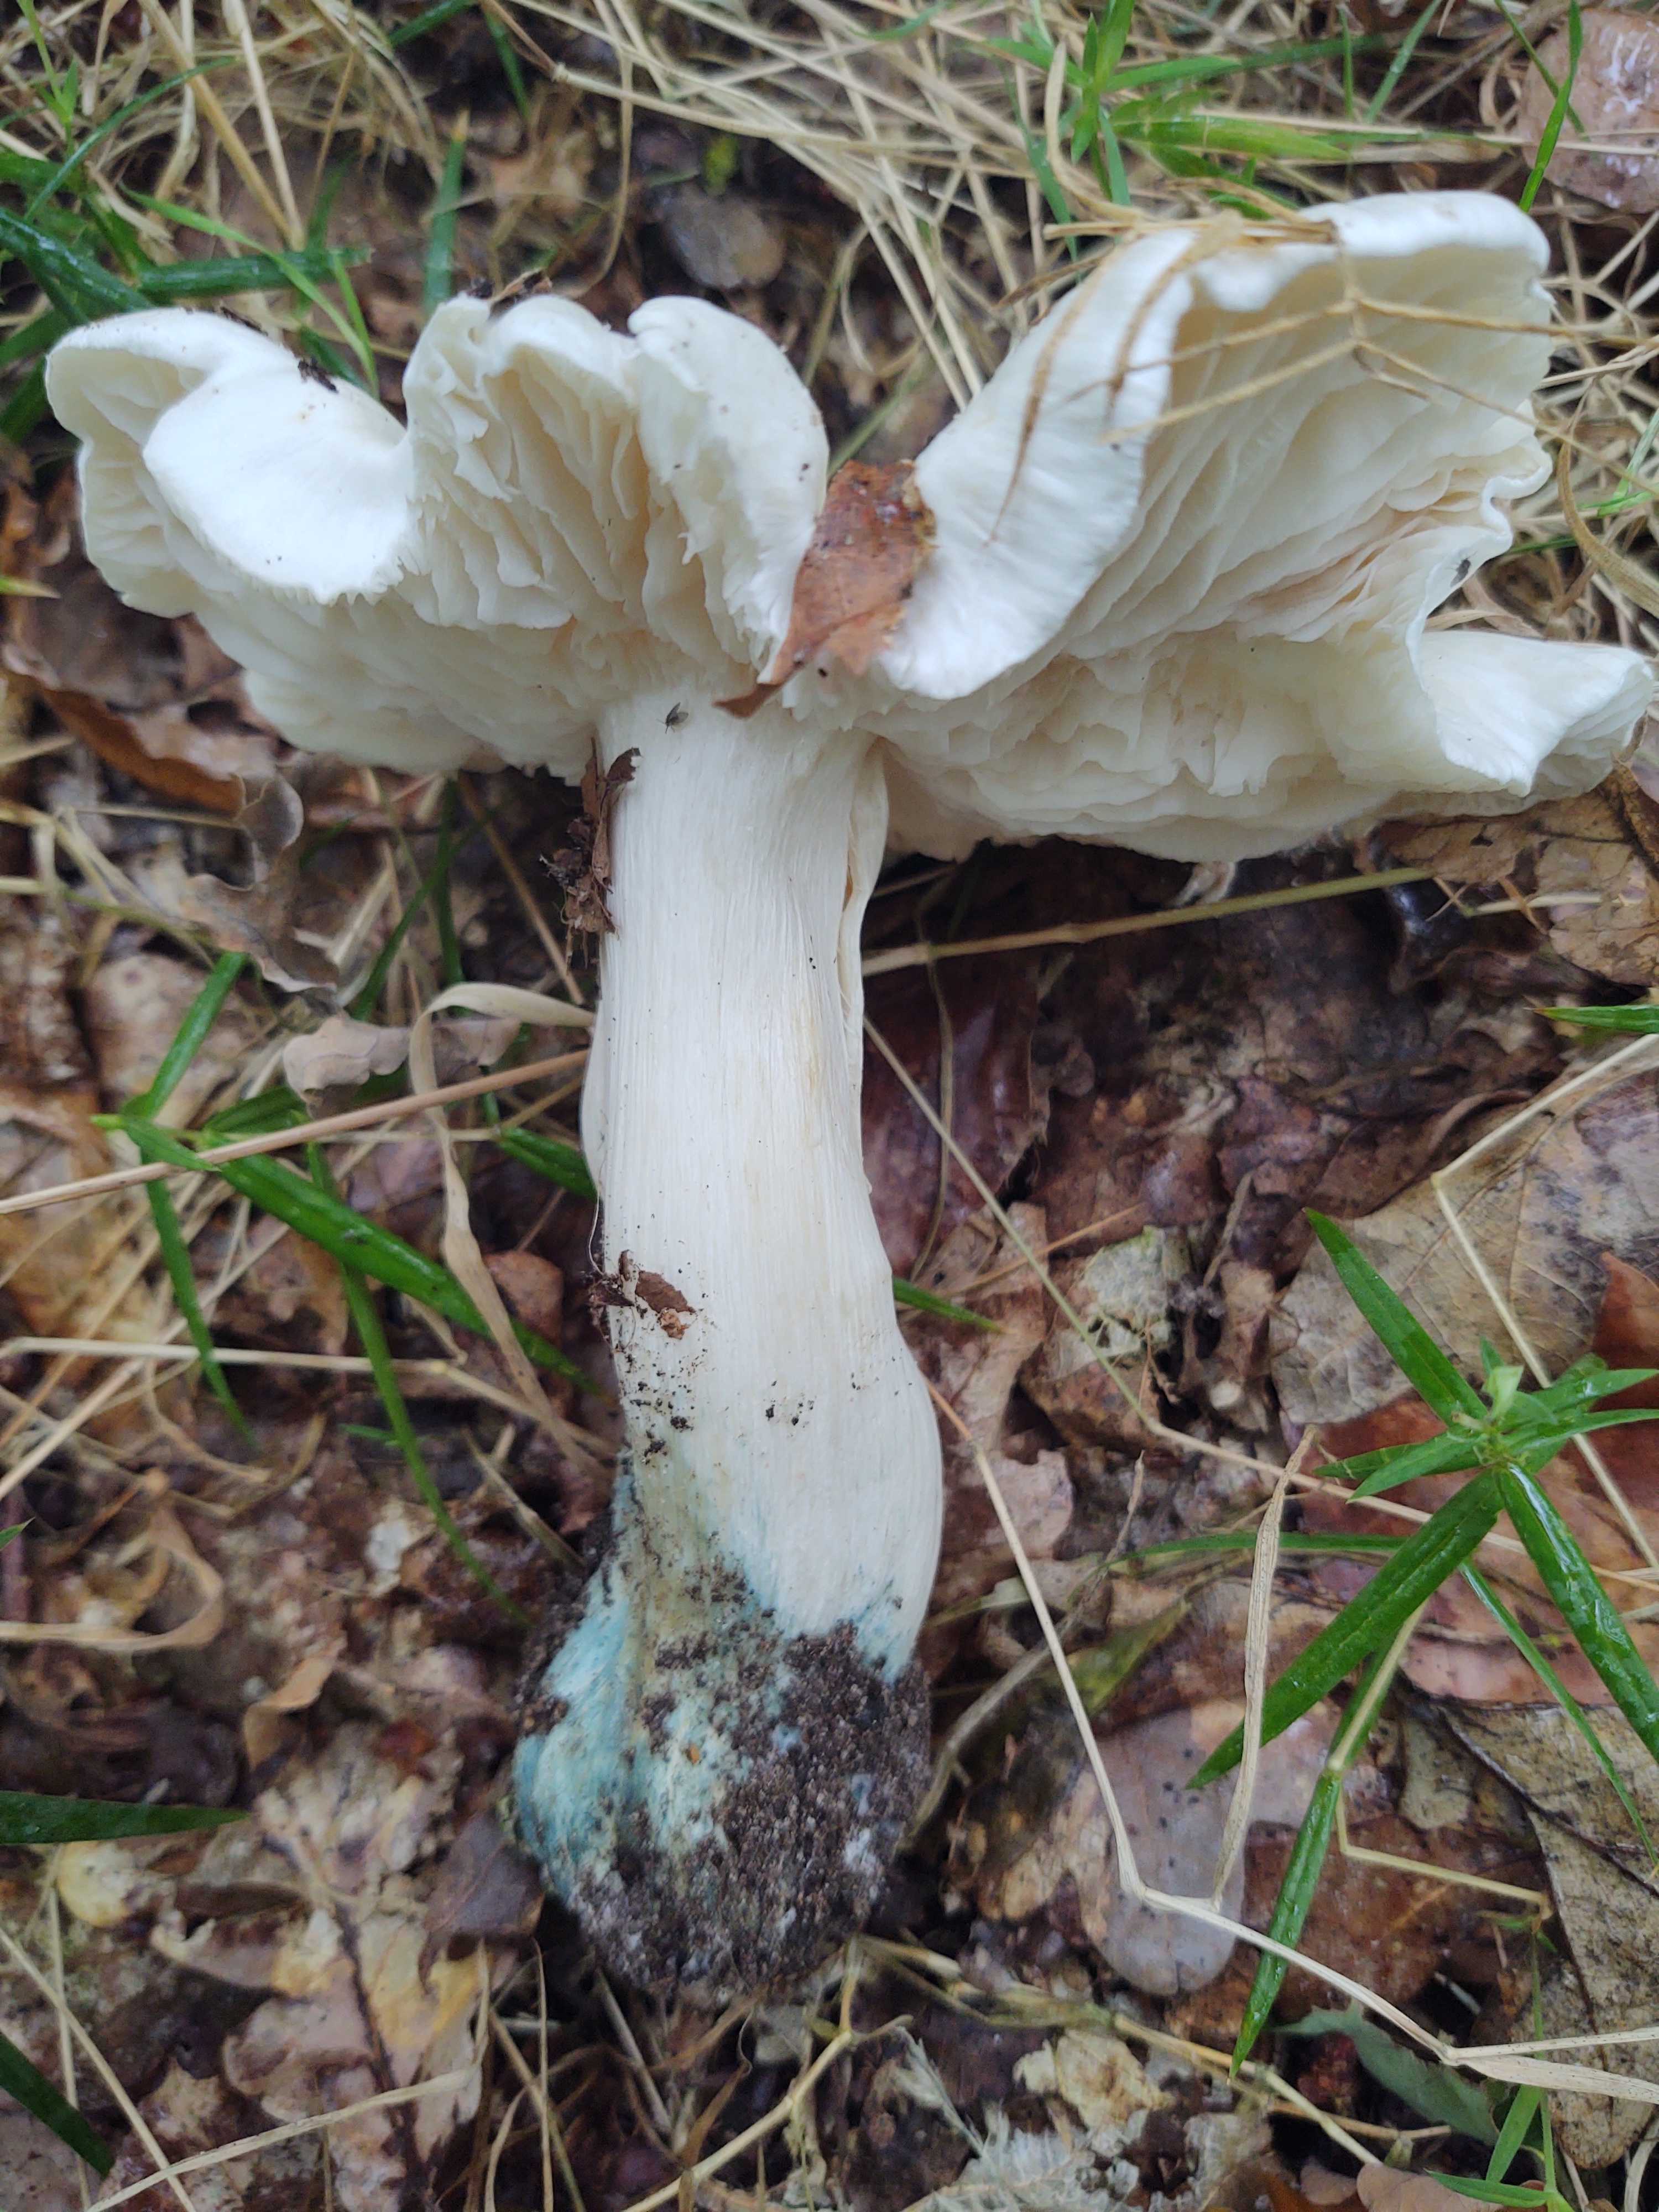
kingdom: Fungi
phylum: Basidiomycota
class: Agaricomycetes
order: Agaricales
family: Tricholomataceae
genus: Tricholoma
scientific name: Tricholoma columbetta
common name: silke-ridderhat
